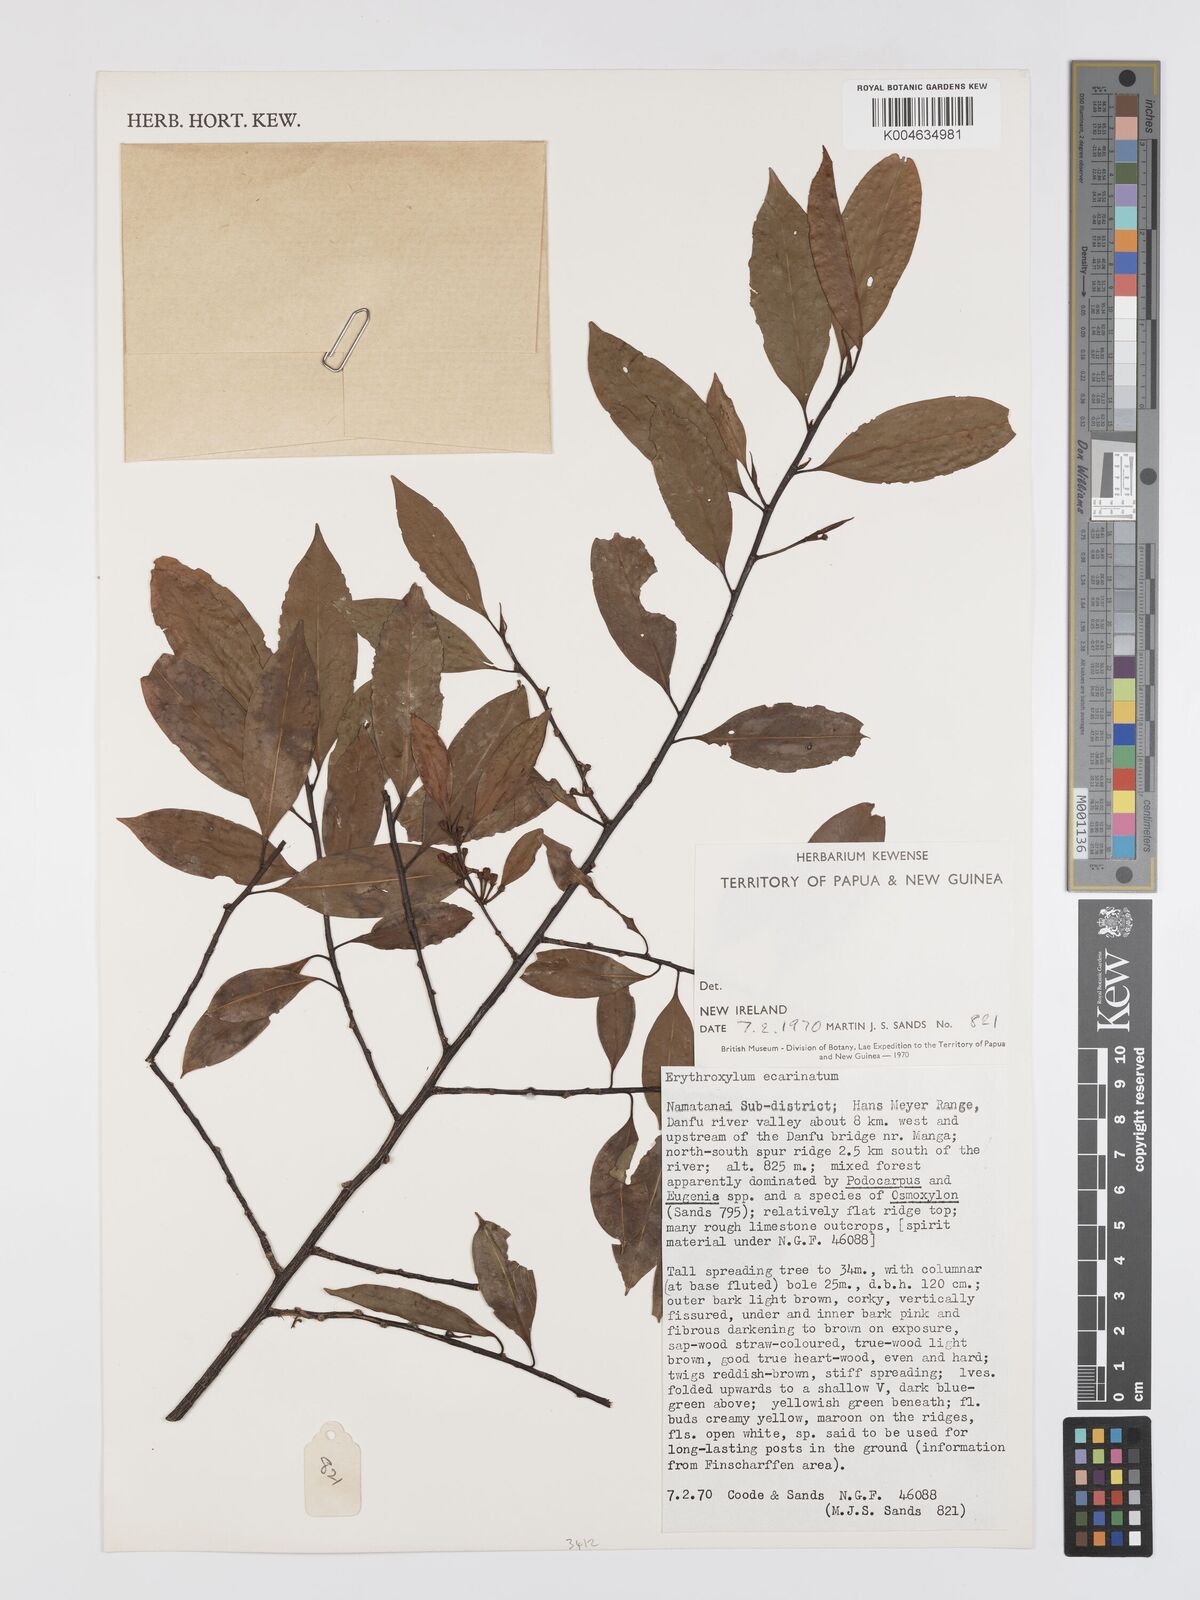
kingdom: Plantae
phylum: Tracheophyta
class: Magnoliopsida
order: Malpighiales
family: Erythroxylaceae
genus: Erythroxylum
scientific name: Erythroxylum ecarinatum
